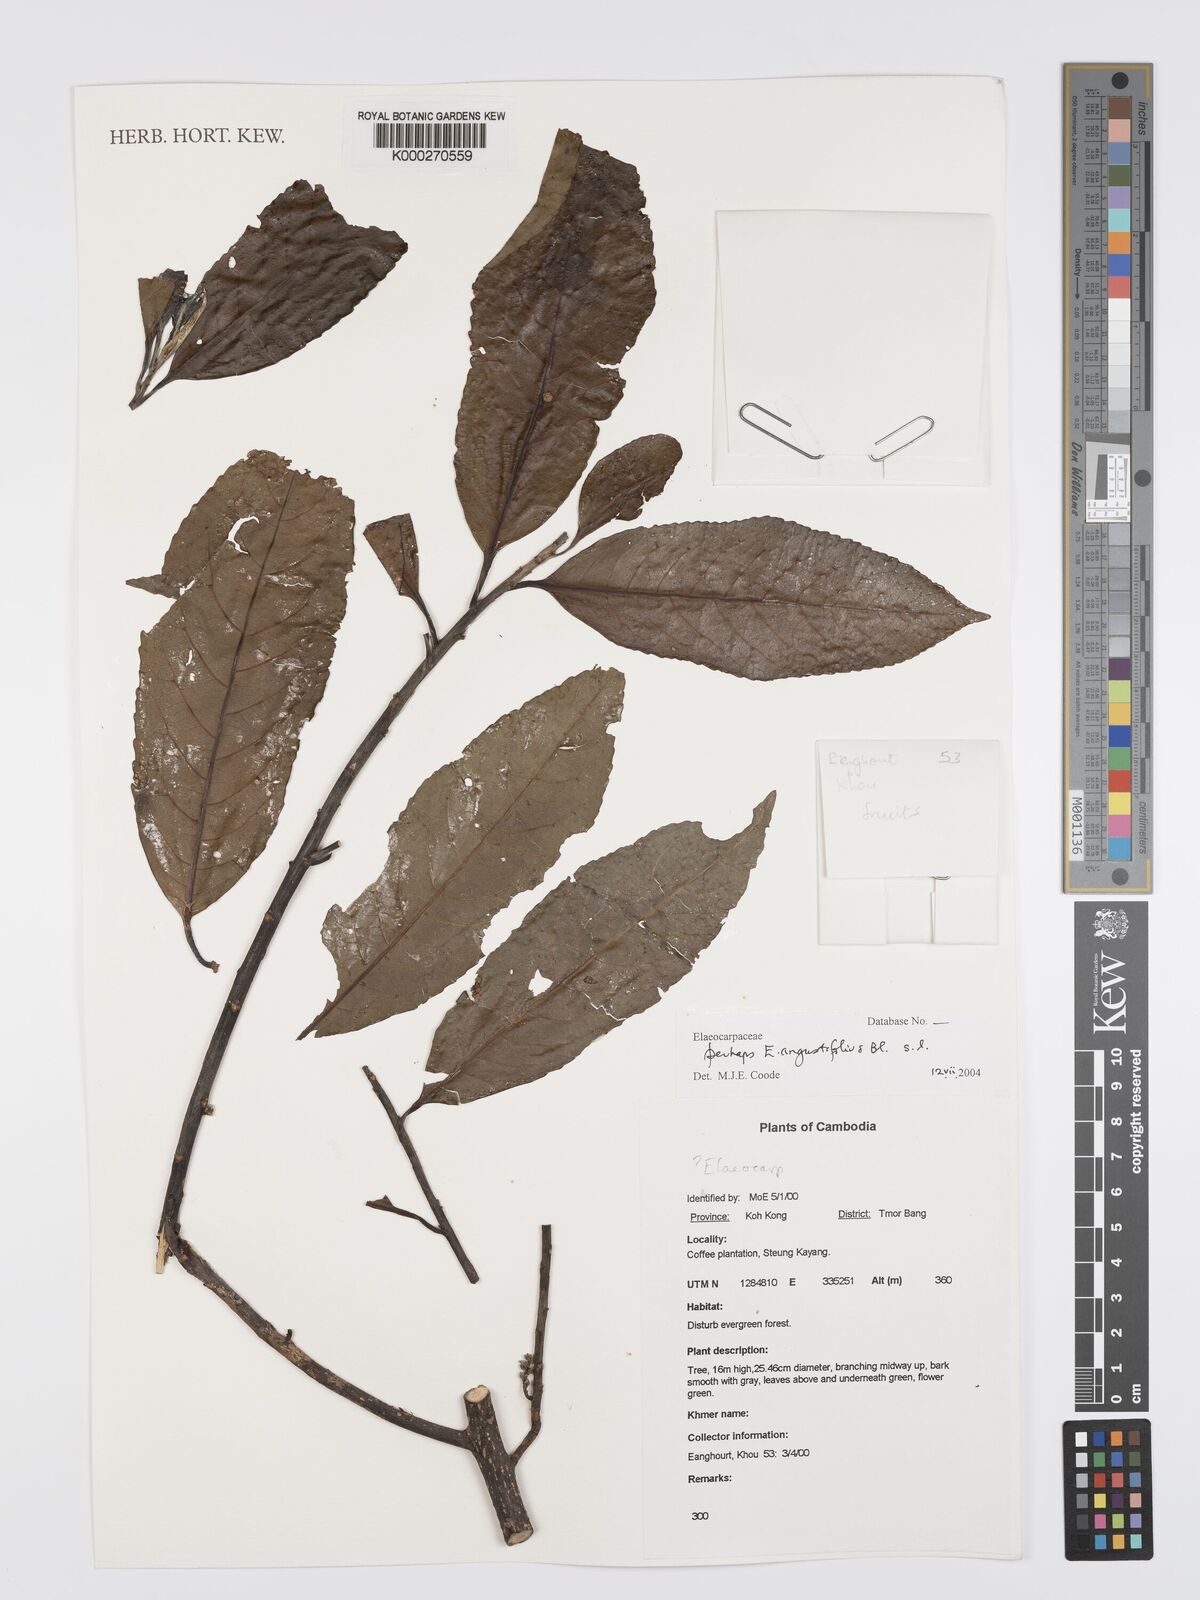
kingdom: Plantae
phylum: Tracheophyta
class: Magnoliopsida
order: Oxalidales
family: Elaeocarpaceae
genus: Elaeocarpus
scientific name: Elaeocarpus angustifolius
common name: Blue marble tree
